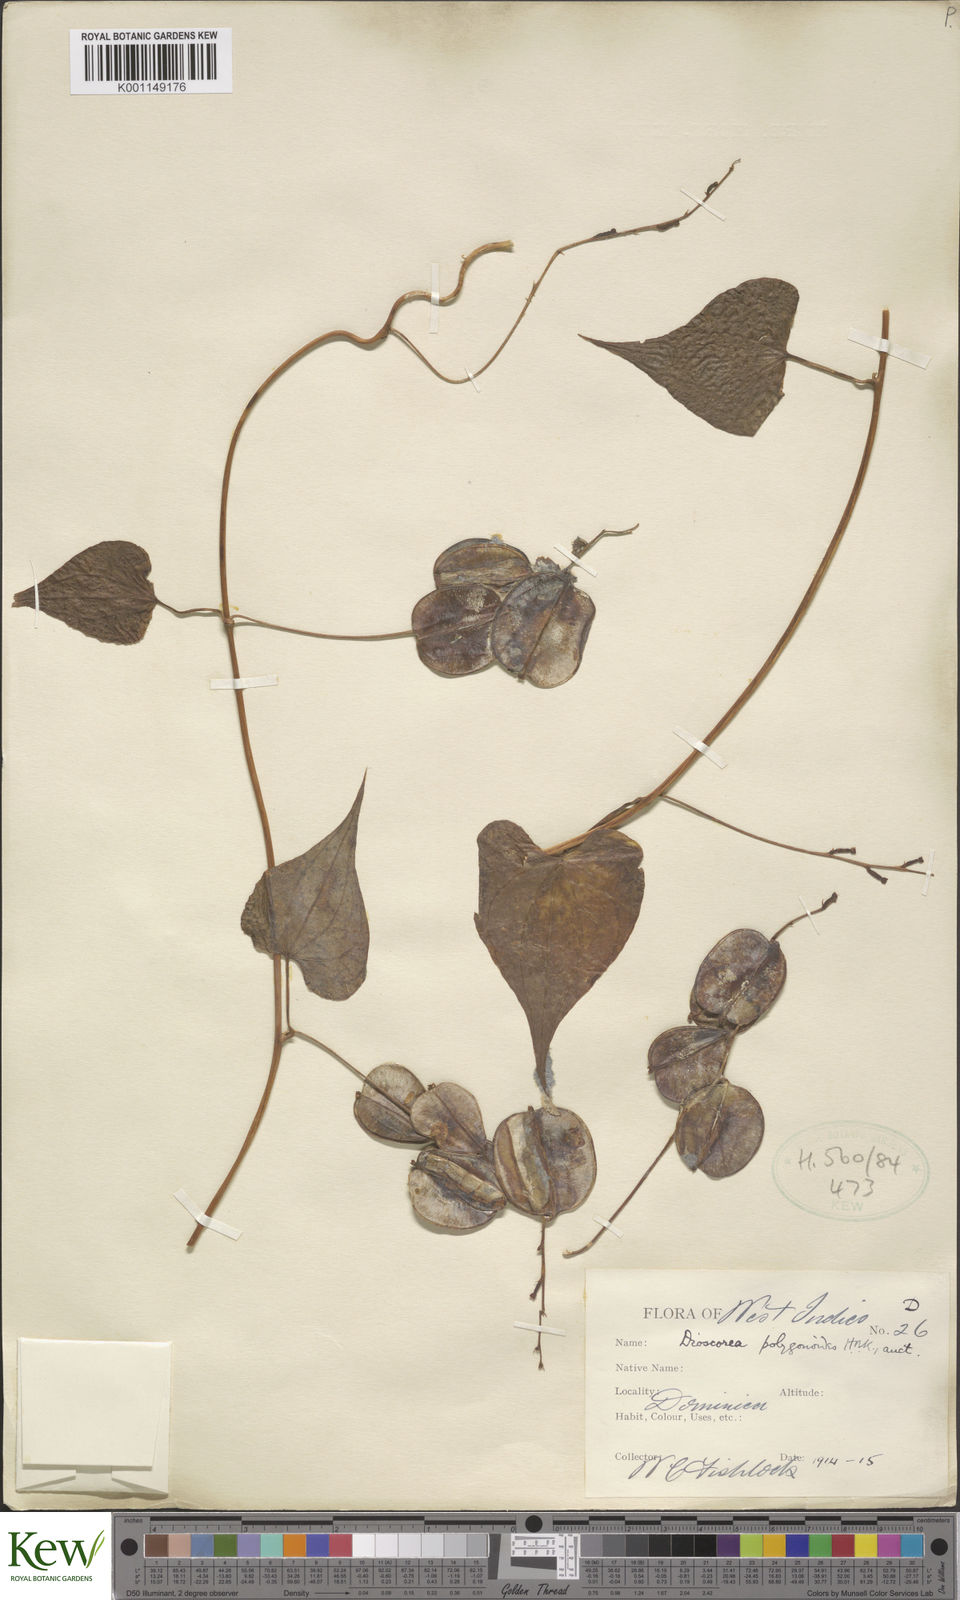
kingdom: Plantae
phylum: Tracheophyta
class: Liliopsida
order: Dioscoreales
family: Dioscoreaceae
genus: Dioscorea
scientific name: Dioscorea polygonoides
